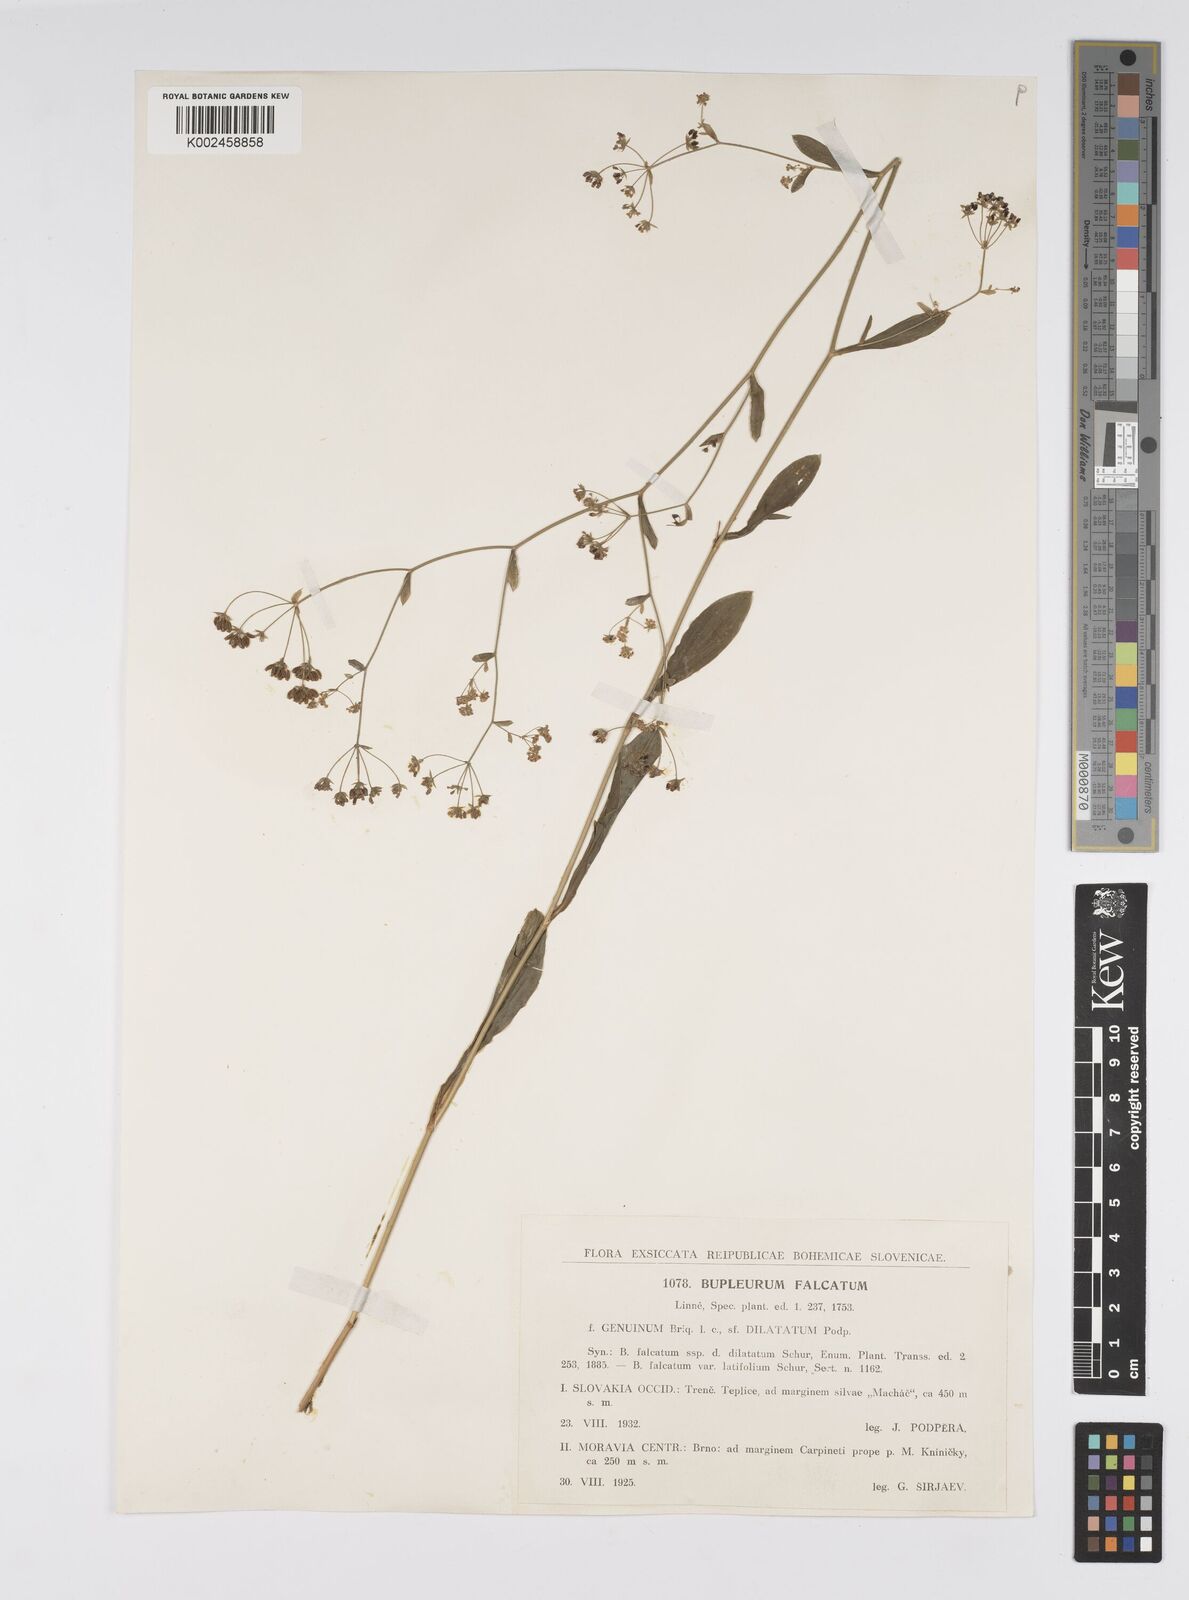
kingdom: Plantae
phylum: Tracheophyta
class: Magnoliopsida
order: Apiales
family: Apiaceae
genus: Bupleurum
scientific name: Bupleurum falcatum
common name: Sickle-leaved hare's-ear
